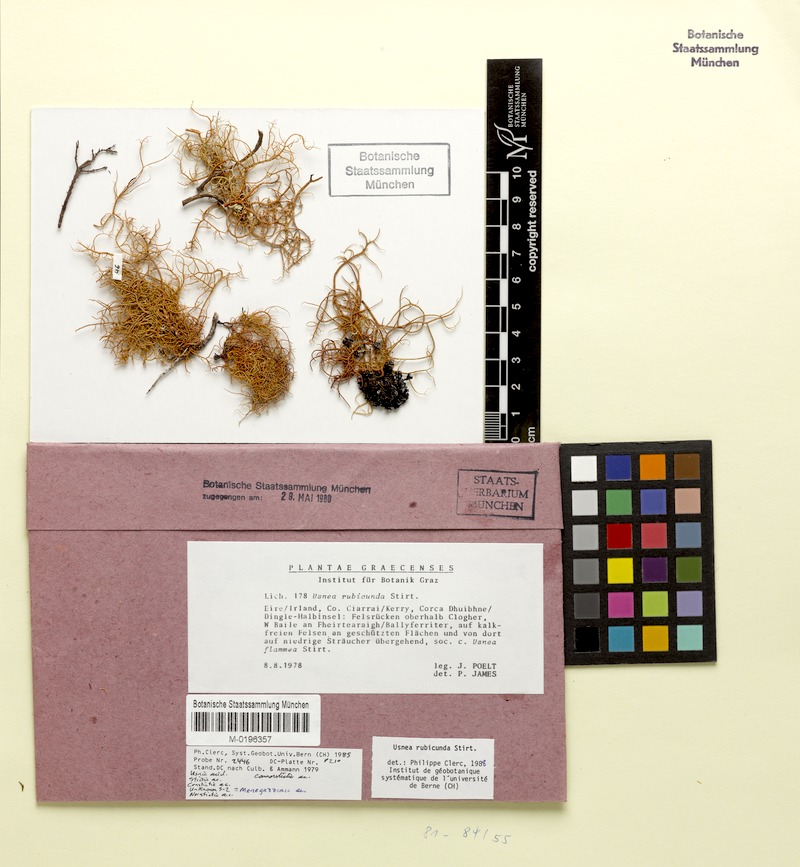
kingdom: Fungi
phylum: Ascomycota
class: Lecanoromycetes
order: Lecanorales
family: Parmeliaceae
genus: Usnea
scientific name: Usnea rubicunda
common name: Red beard lichen
